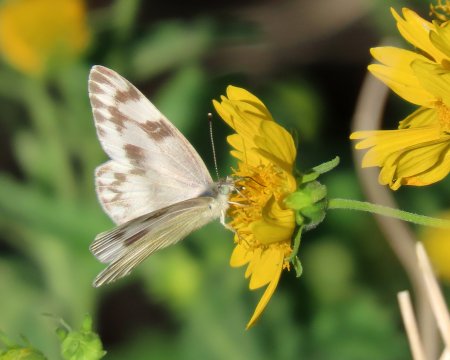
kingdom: Animalia
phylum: Arthropoda
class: Insecta
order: Lepidoptera
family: Pieridae
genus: Pontia
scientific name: Pontia protodice
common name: Checkered White
